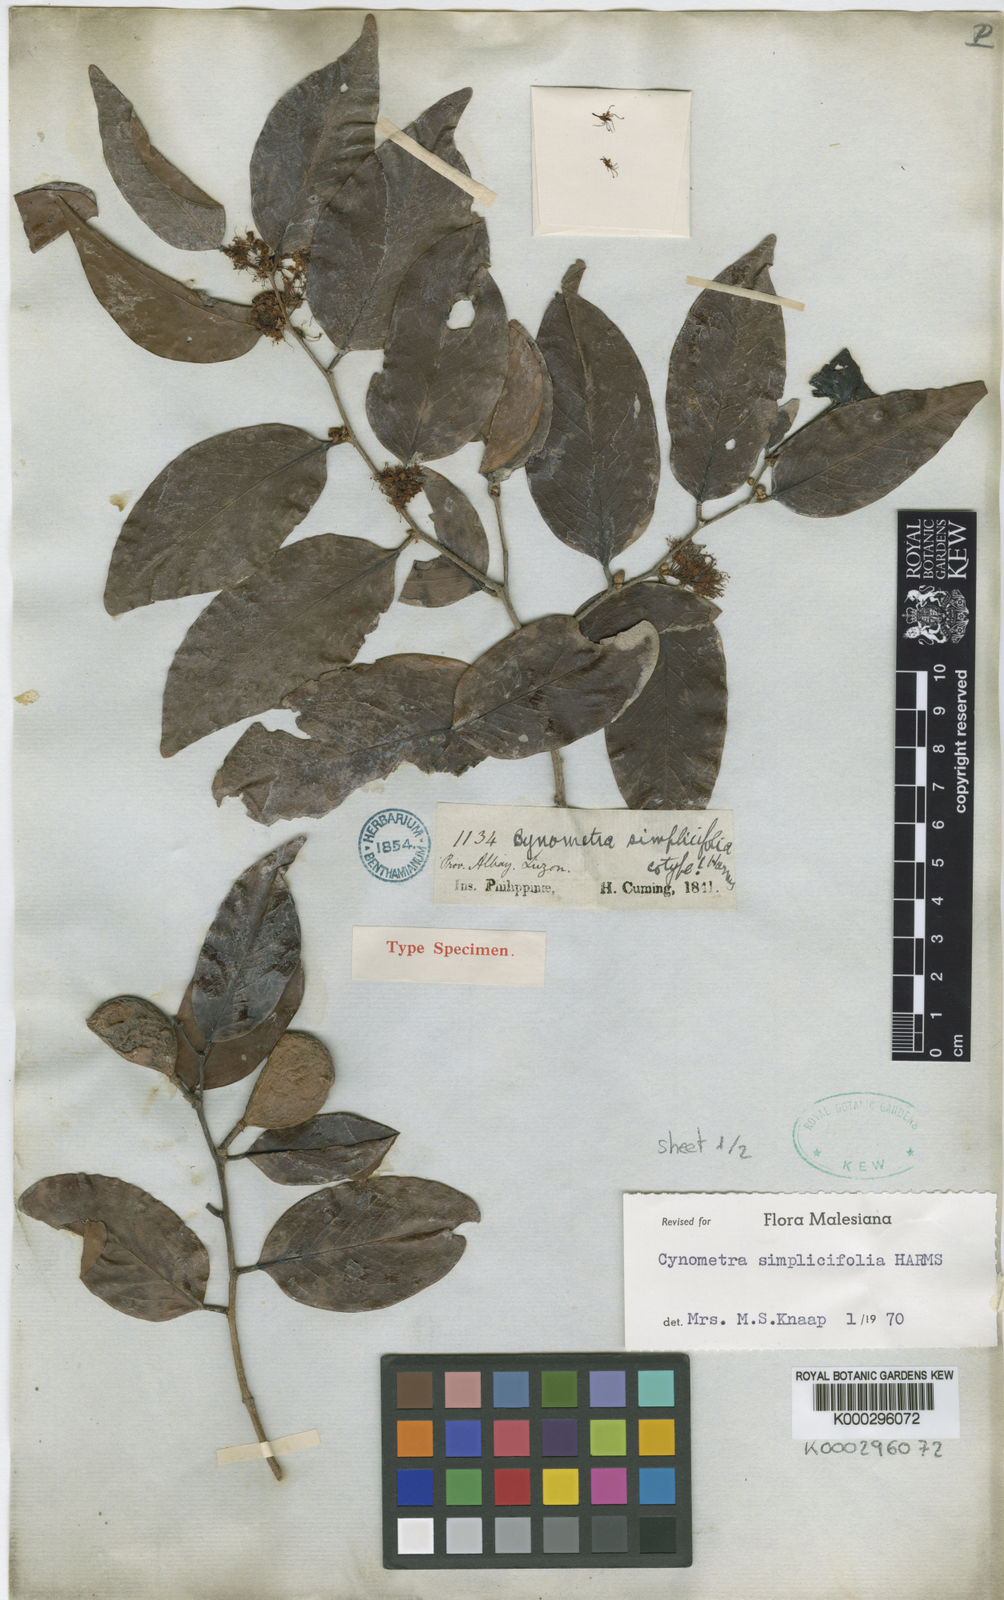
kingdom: Plantae
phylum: Tracheophyta
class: Magnoliopsida
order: Fabales
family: Fabaceae
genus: Cynometra
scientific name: Cynometra simplicifolia
